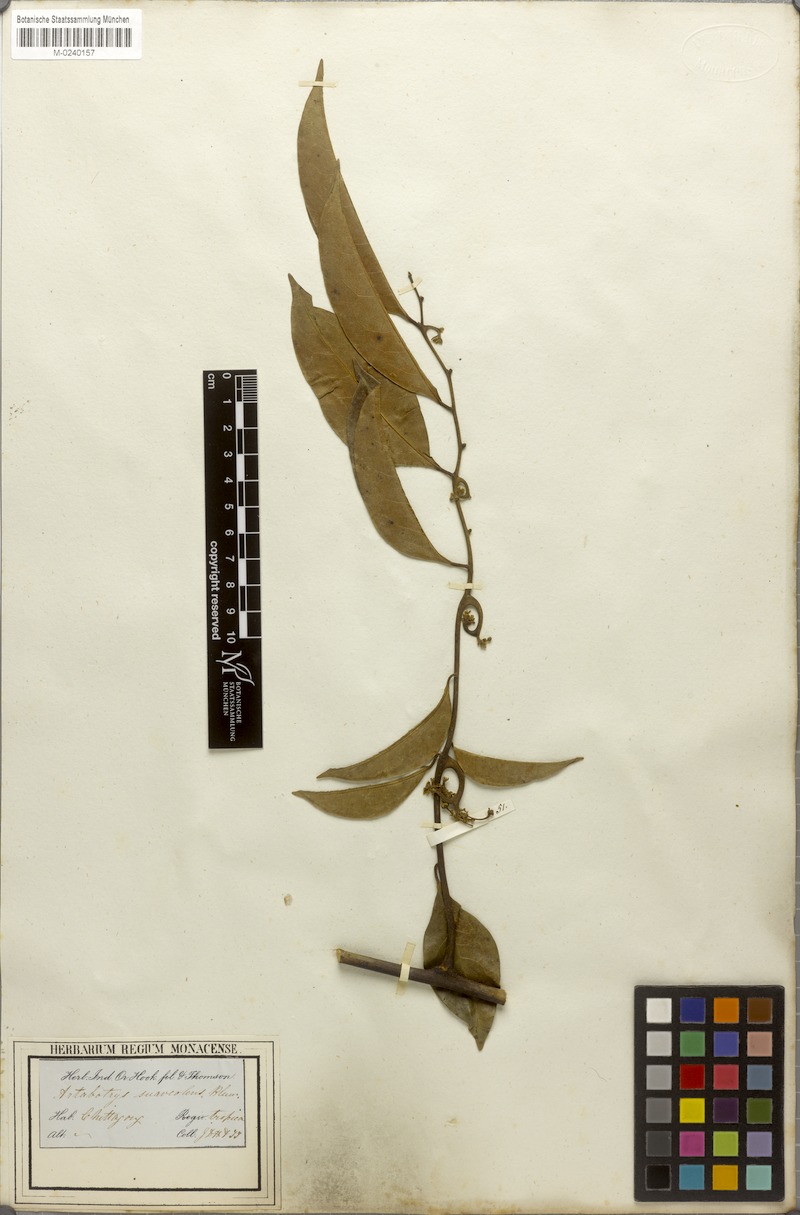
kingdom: Plantae
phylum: Tracheophyta
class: Magnoliopsida
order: Magnoliales
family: Annonaceae
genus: Artabotrys
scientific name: Artabotrys suaveolens
